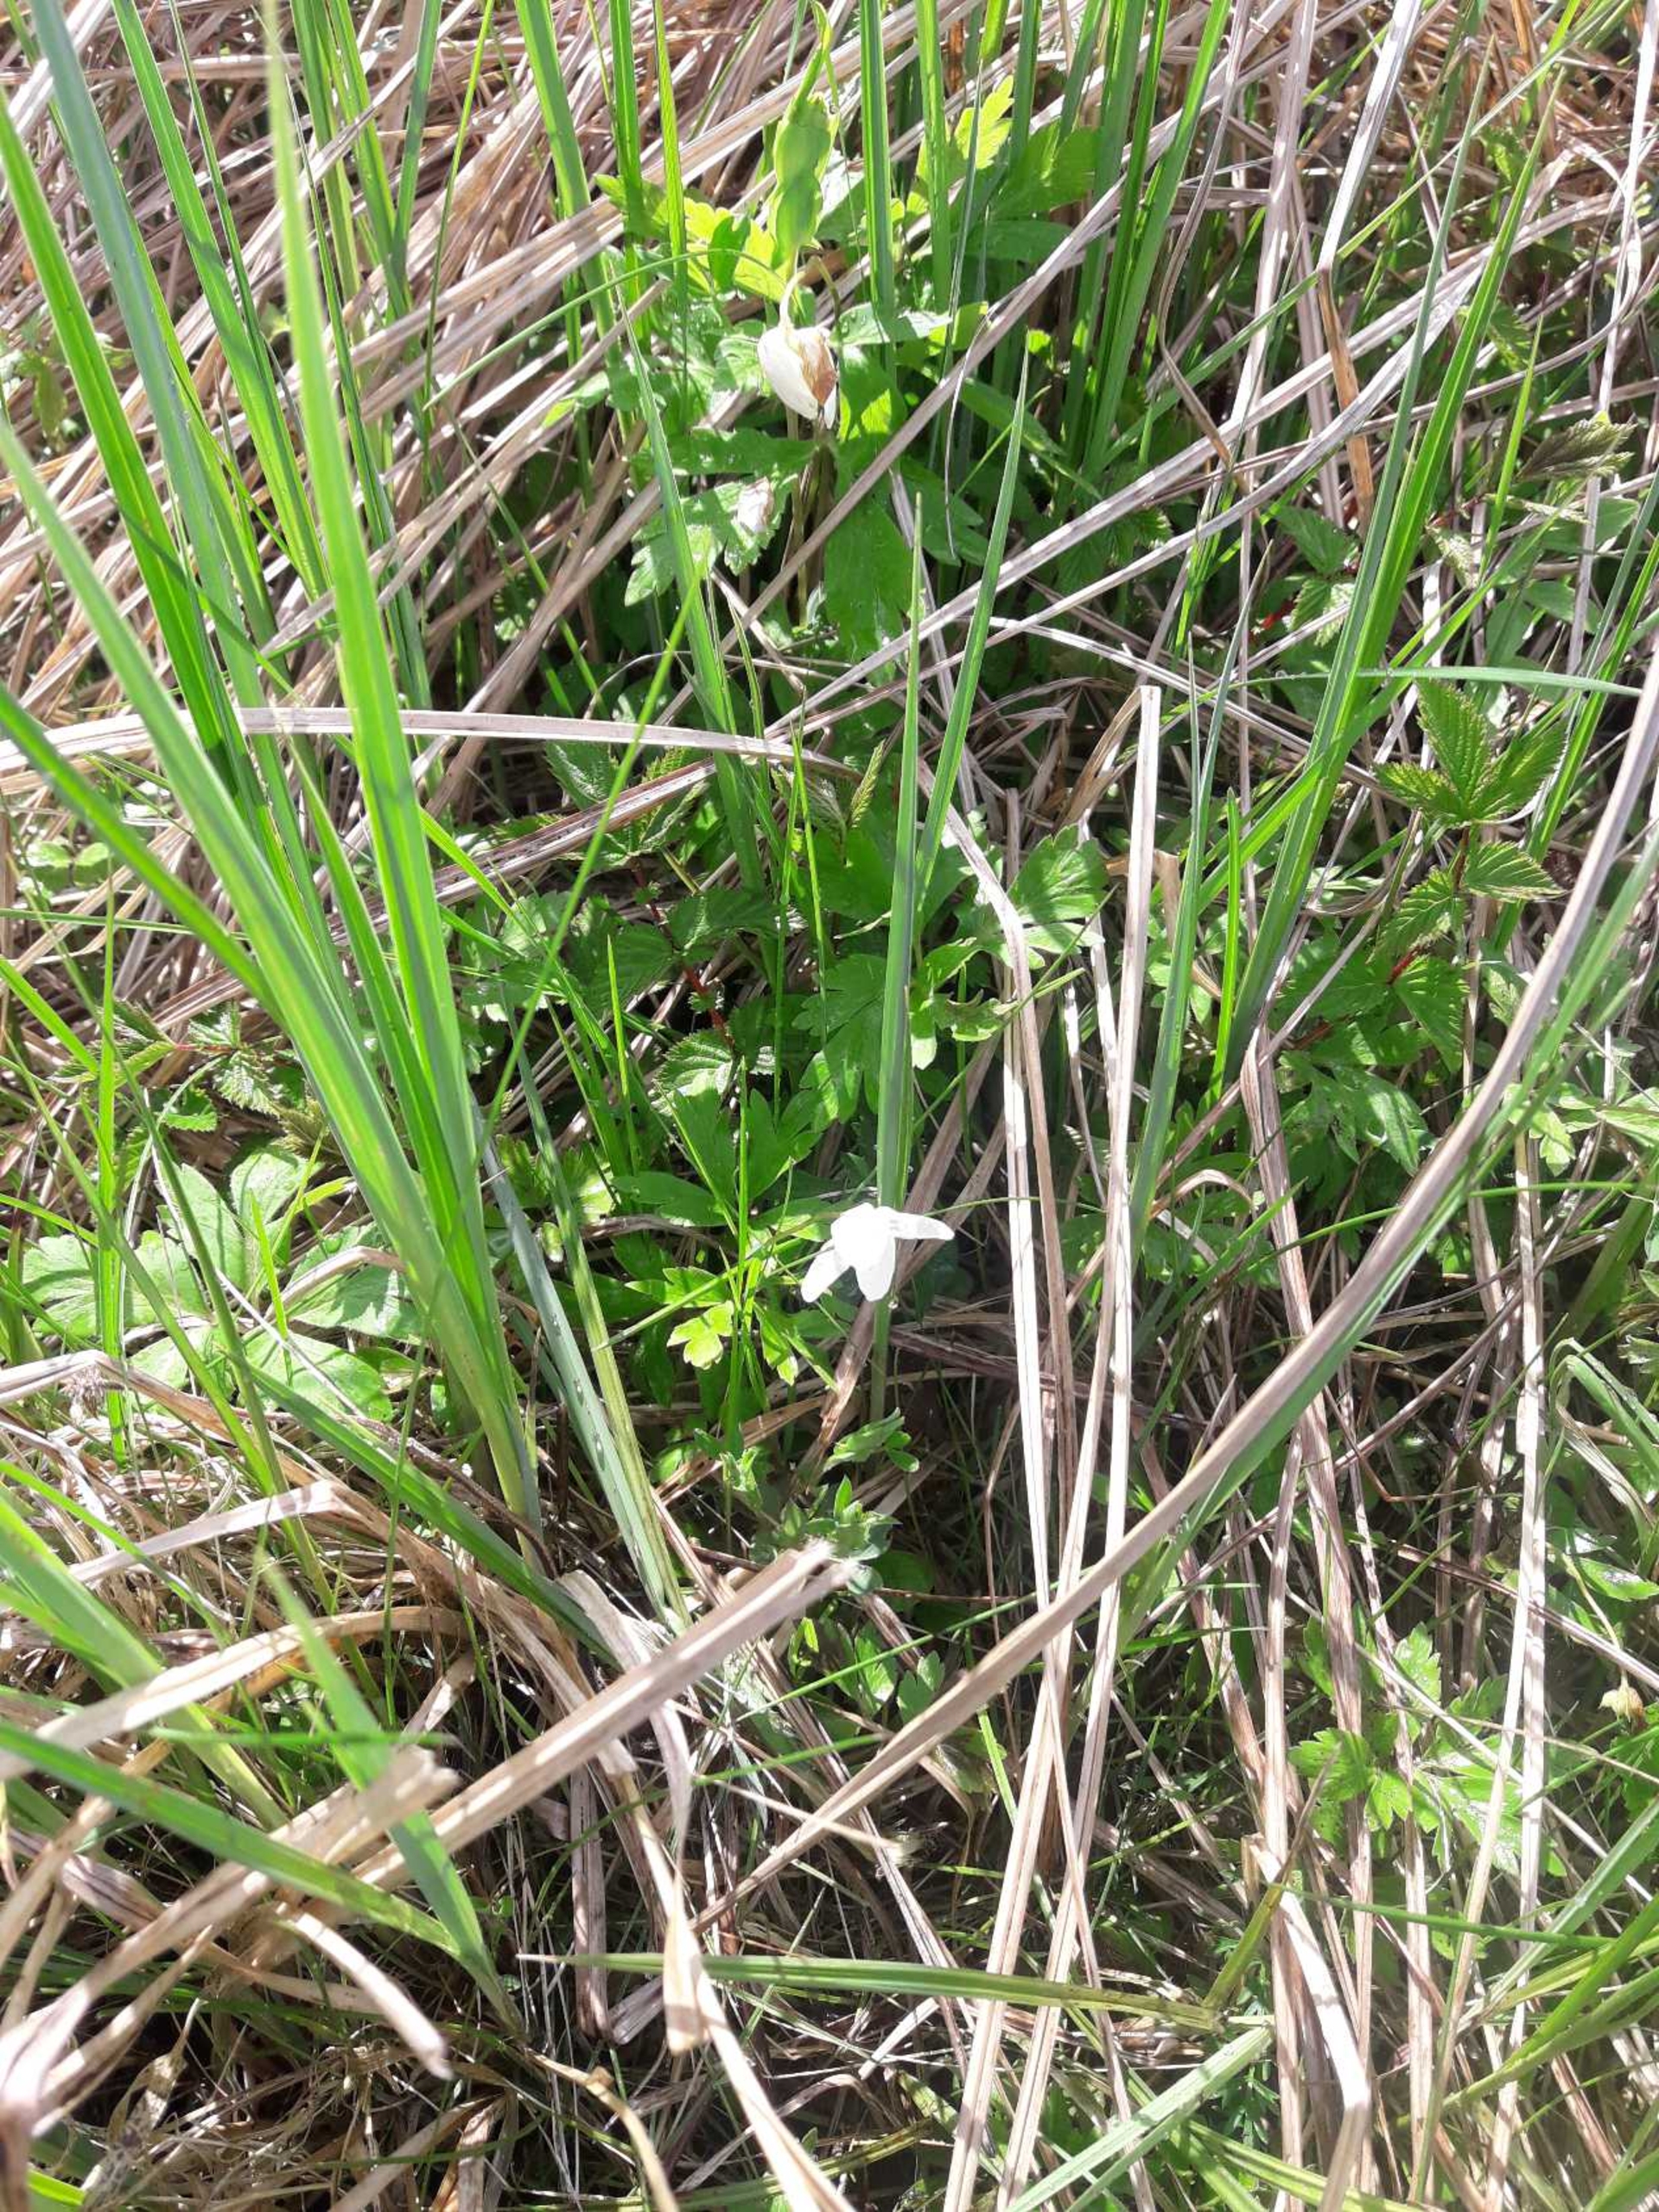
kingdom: Plantae
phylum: Tracheophyta
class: Magnoliopsida
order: Ranunculales
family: Ranunculaceae
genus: Anemone
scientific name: Anemone nemorosa
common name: Hvid anemone
